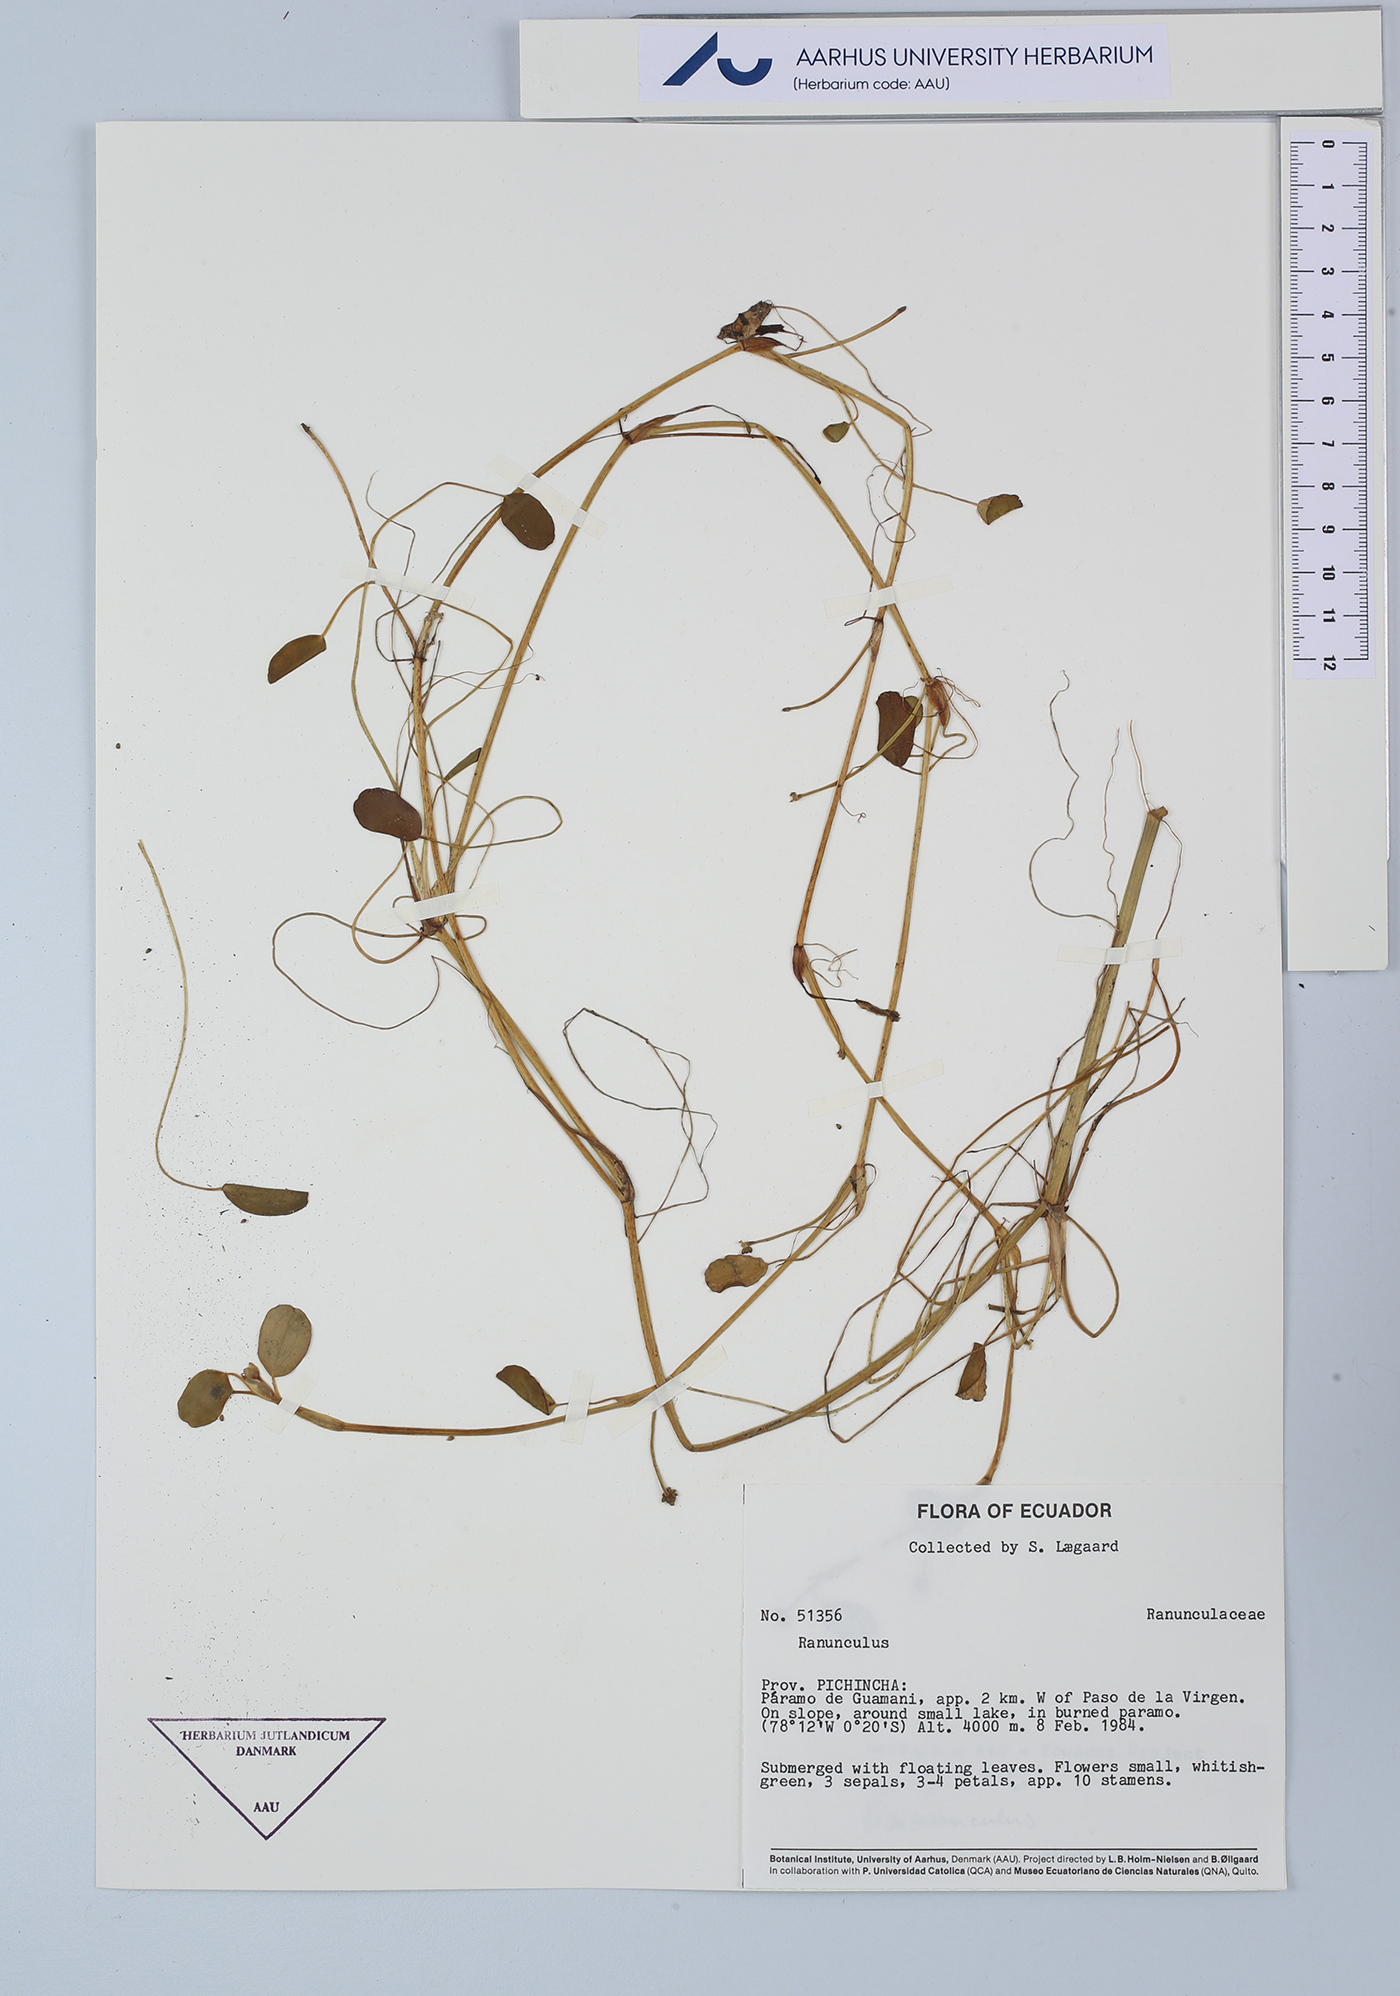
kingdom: Plantae
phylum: Tracheophyta
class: Magnoliopsida
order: Ranunculales
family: Ranunculaceae
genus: Ranunculus
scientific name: Ranunculus
